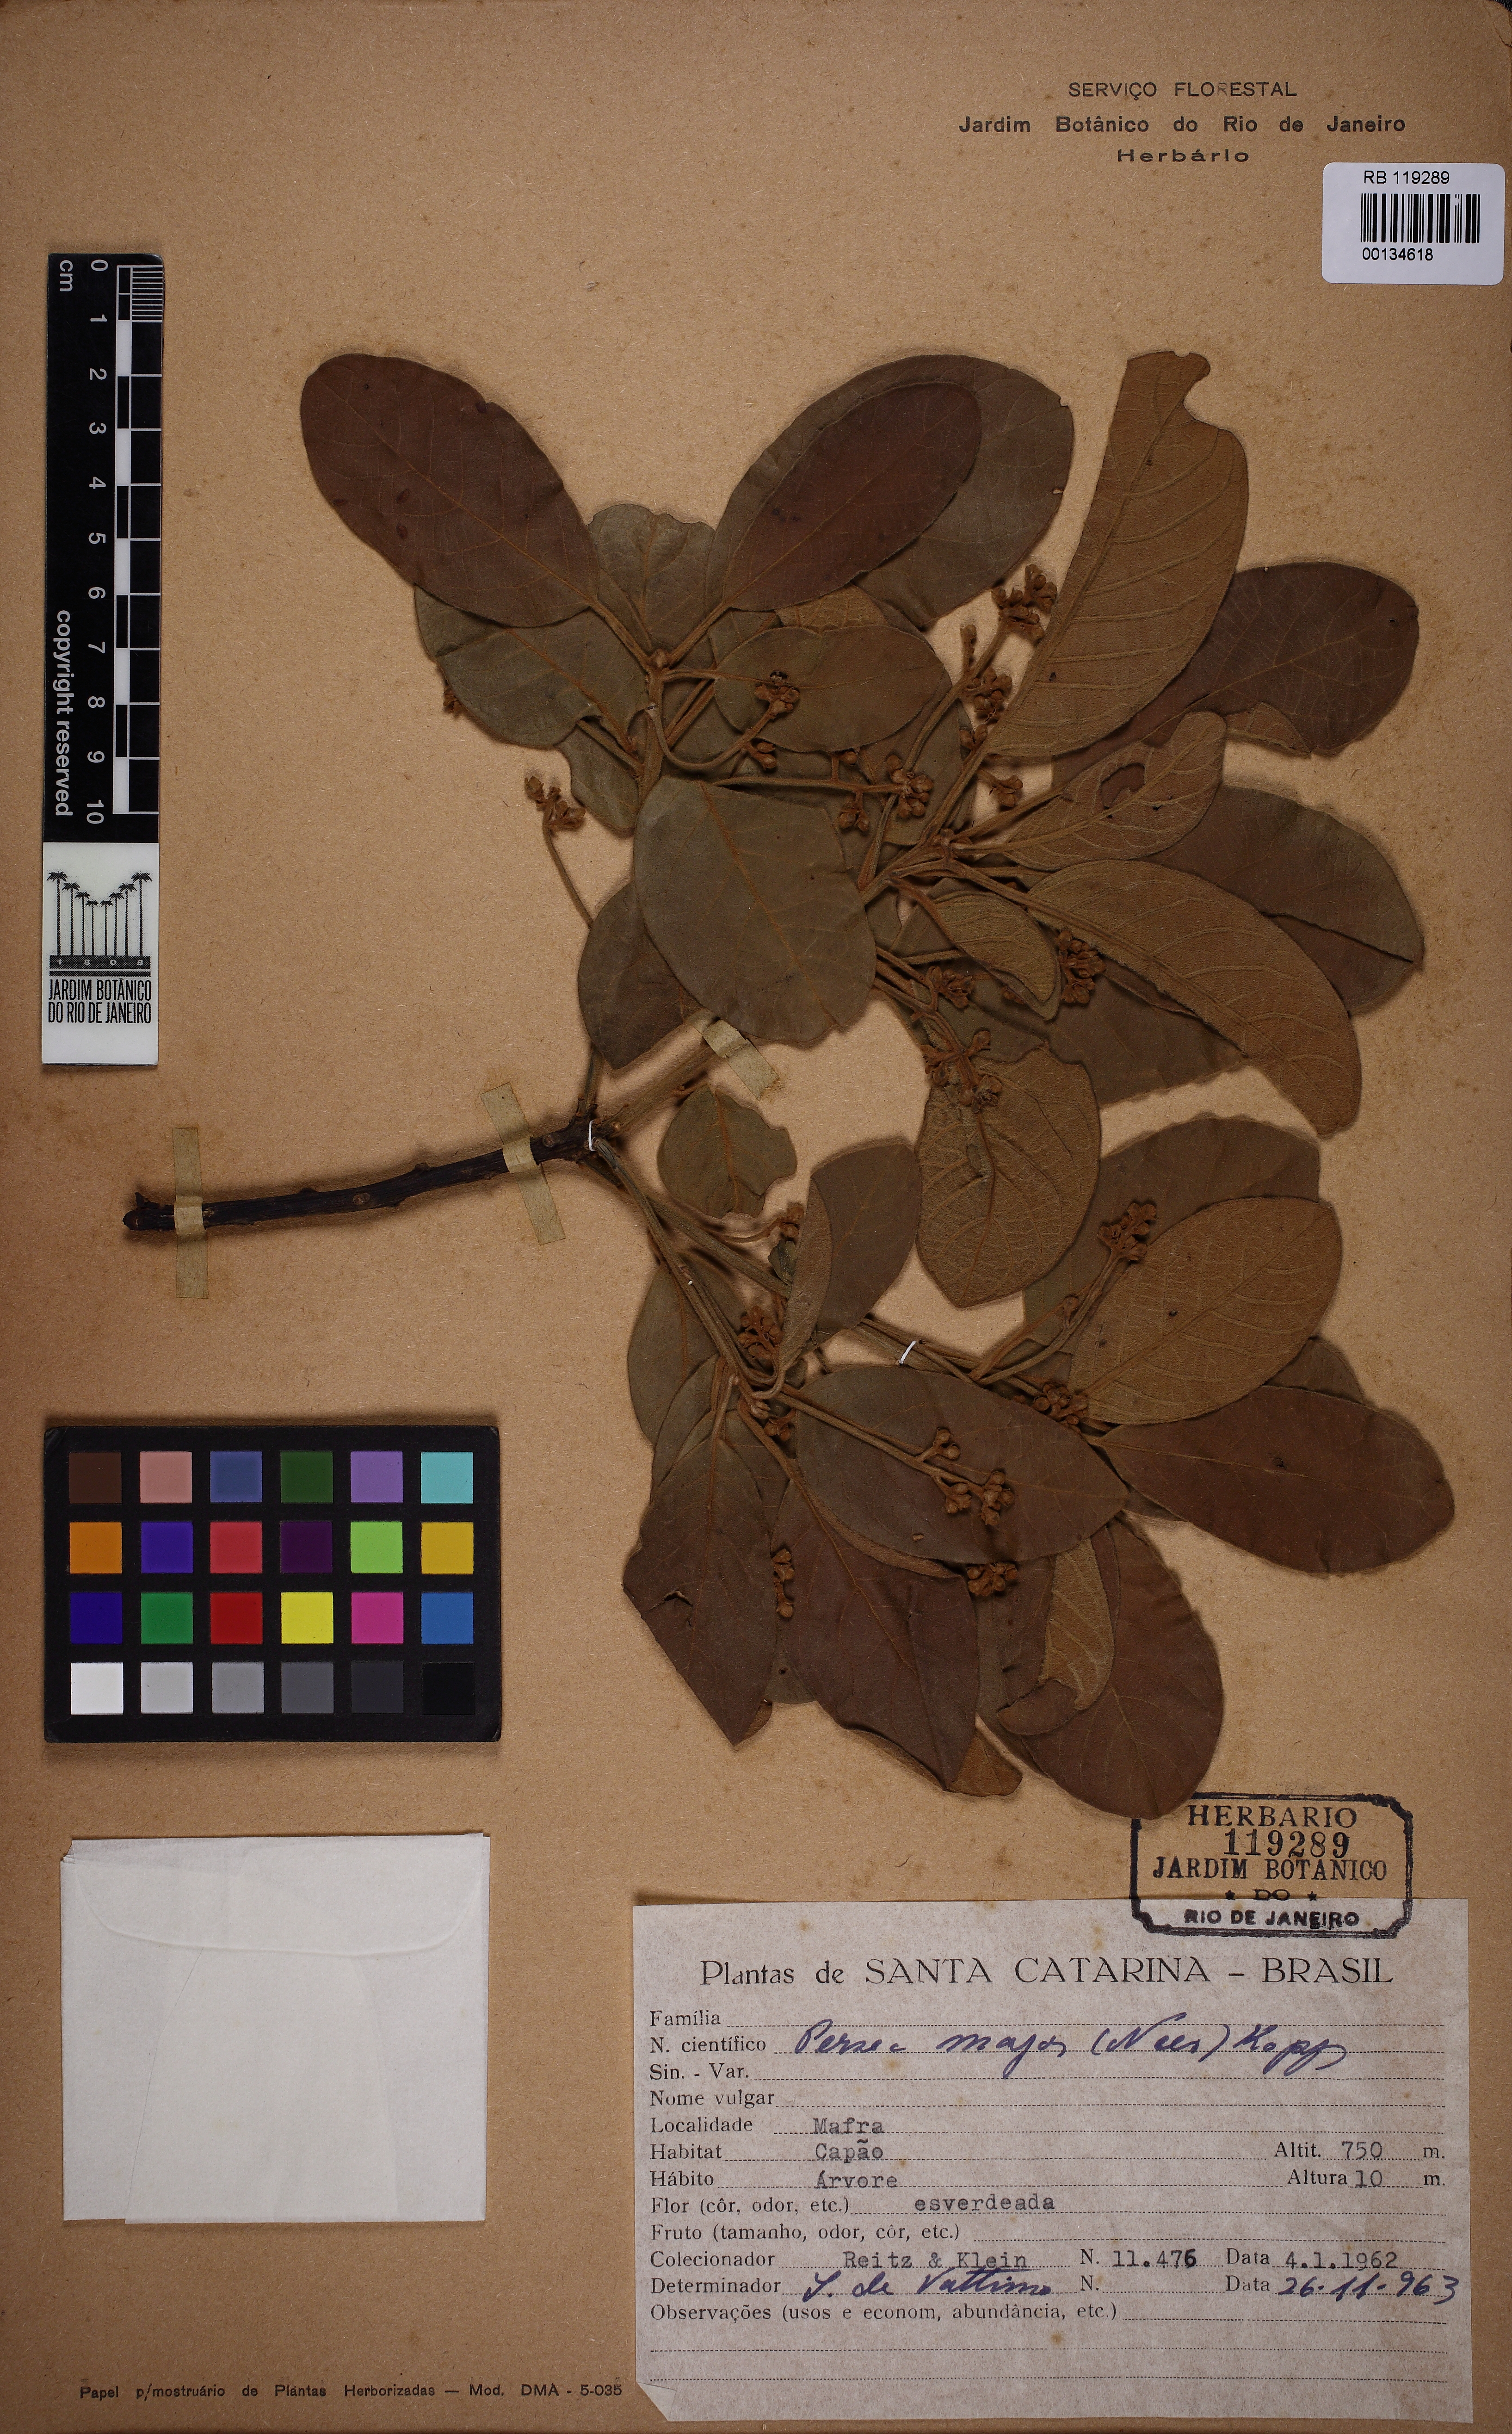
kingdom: Plantae
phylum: Tracheophyta
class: Magnoliopsida
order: Laurales
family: Lauraceae
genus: Persea
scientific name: Persea major
